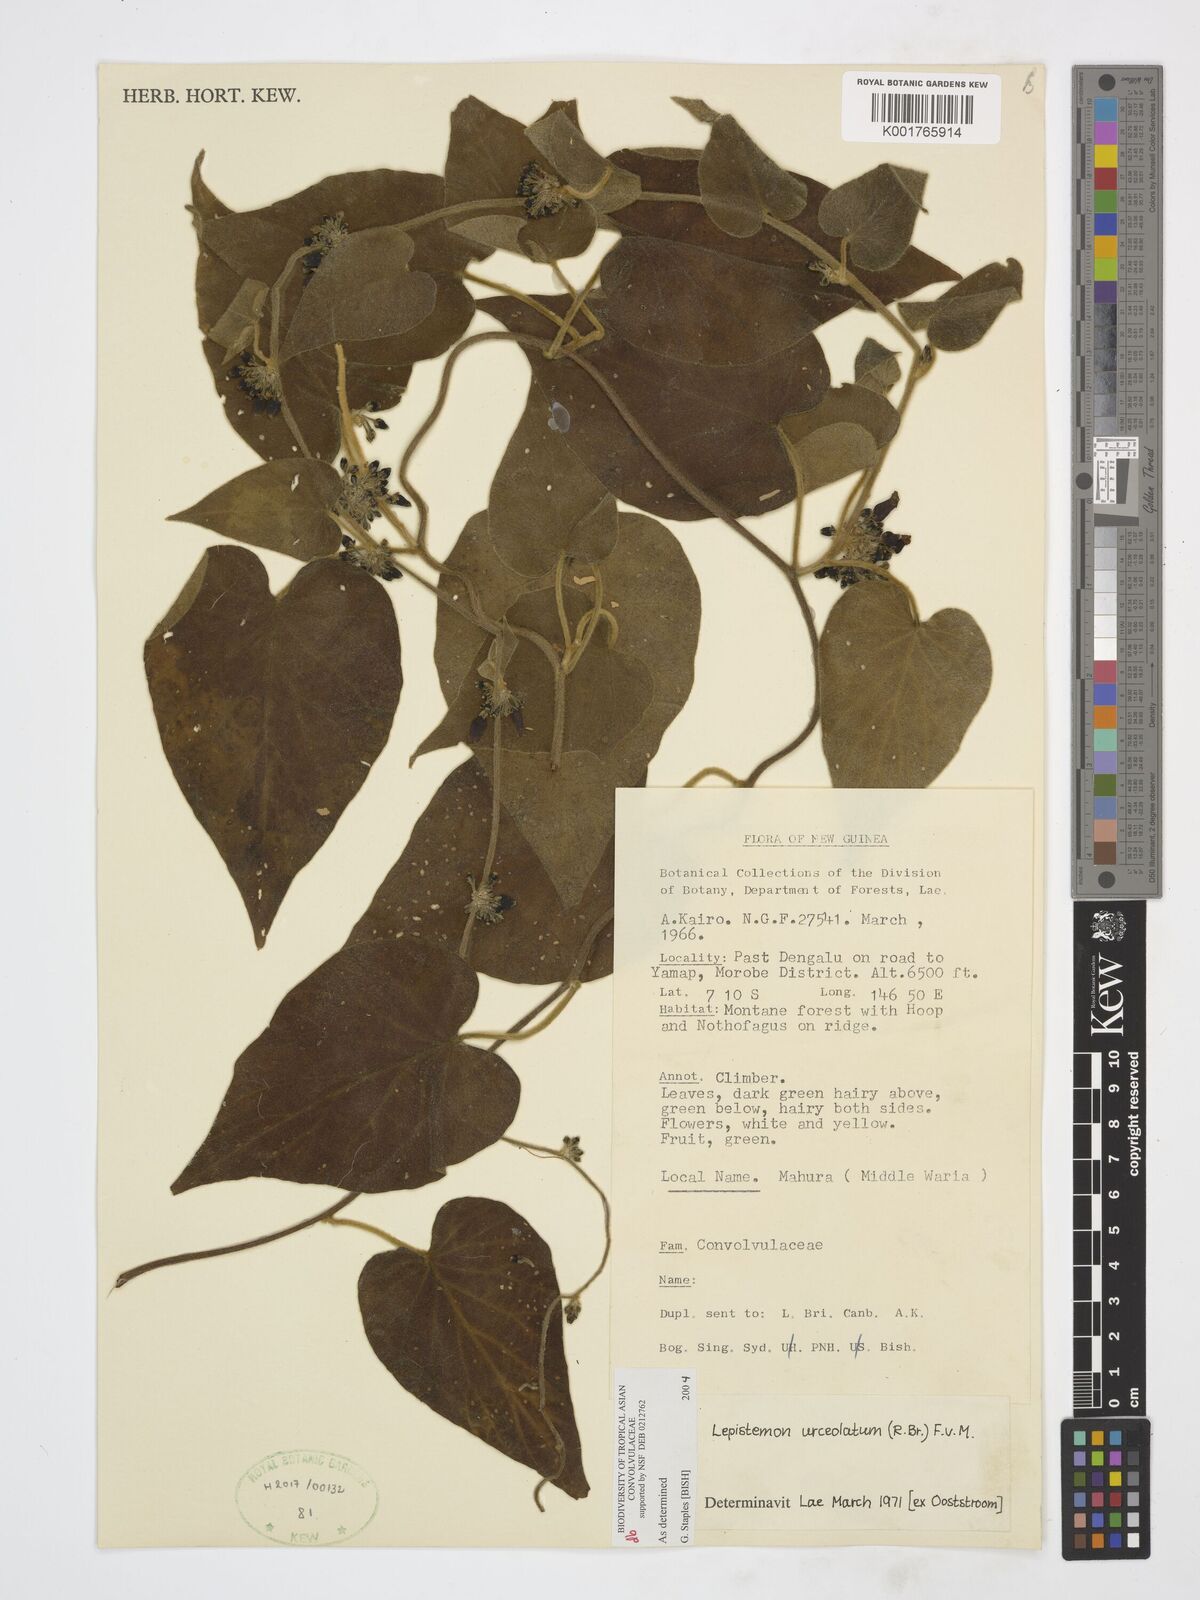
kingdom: Plantae
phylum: Tracheophyta
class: Magnoliopsida
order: Solanales
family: Convolvulaceae
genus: Lepistemon
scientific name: Lepistemon urceolatus
